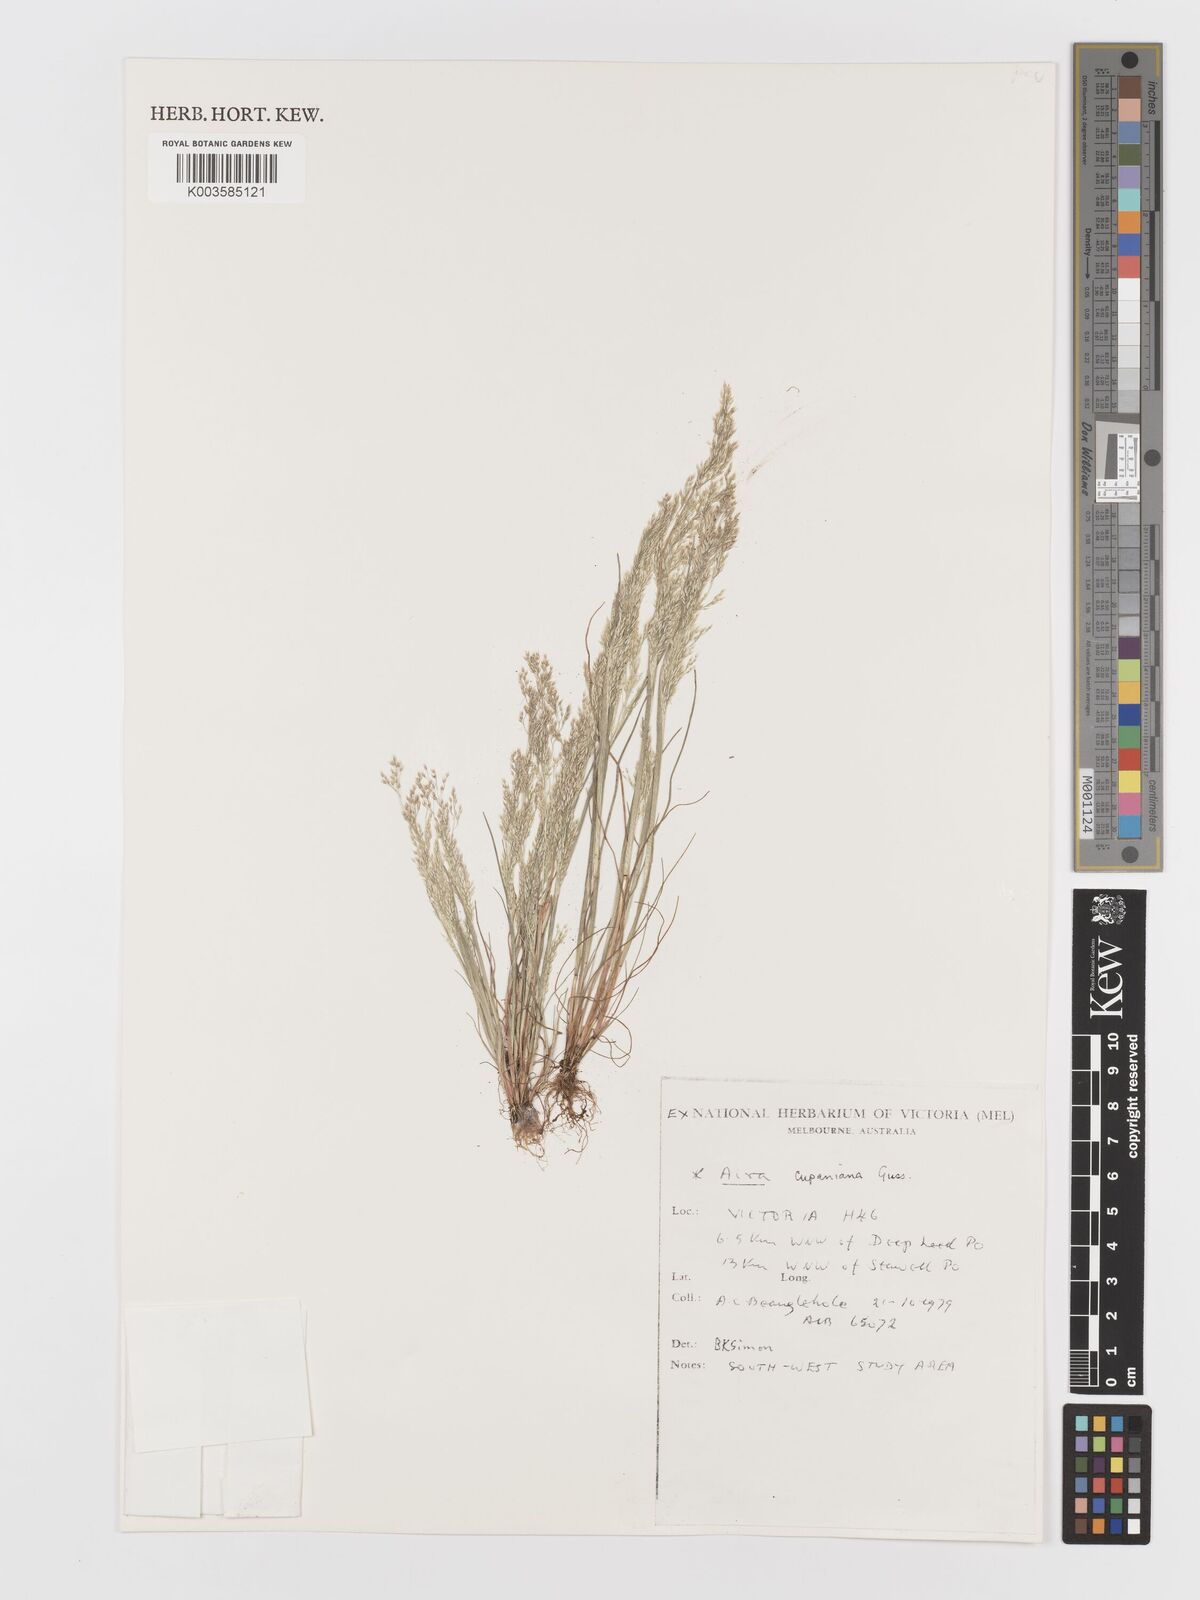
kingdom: Plantae
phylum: Tracheophyta
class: Liliopsida
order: Poales
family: Poaceae
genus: Aira
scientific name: Aira cupaniana
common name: Silver hairgrass
